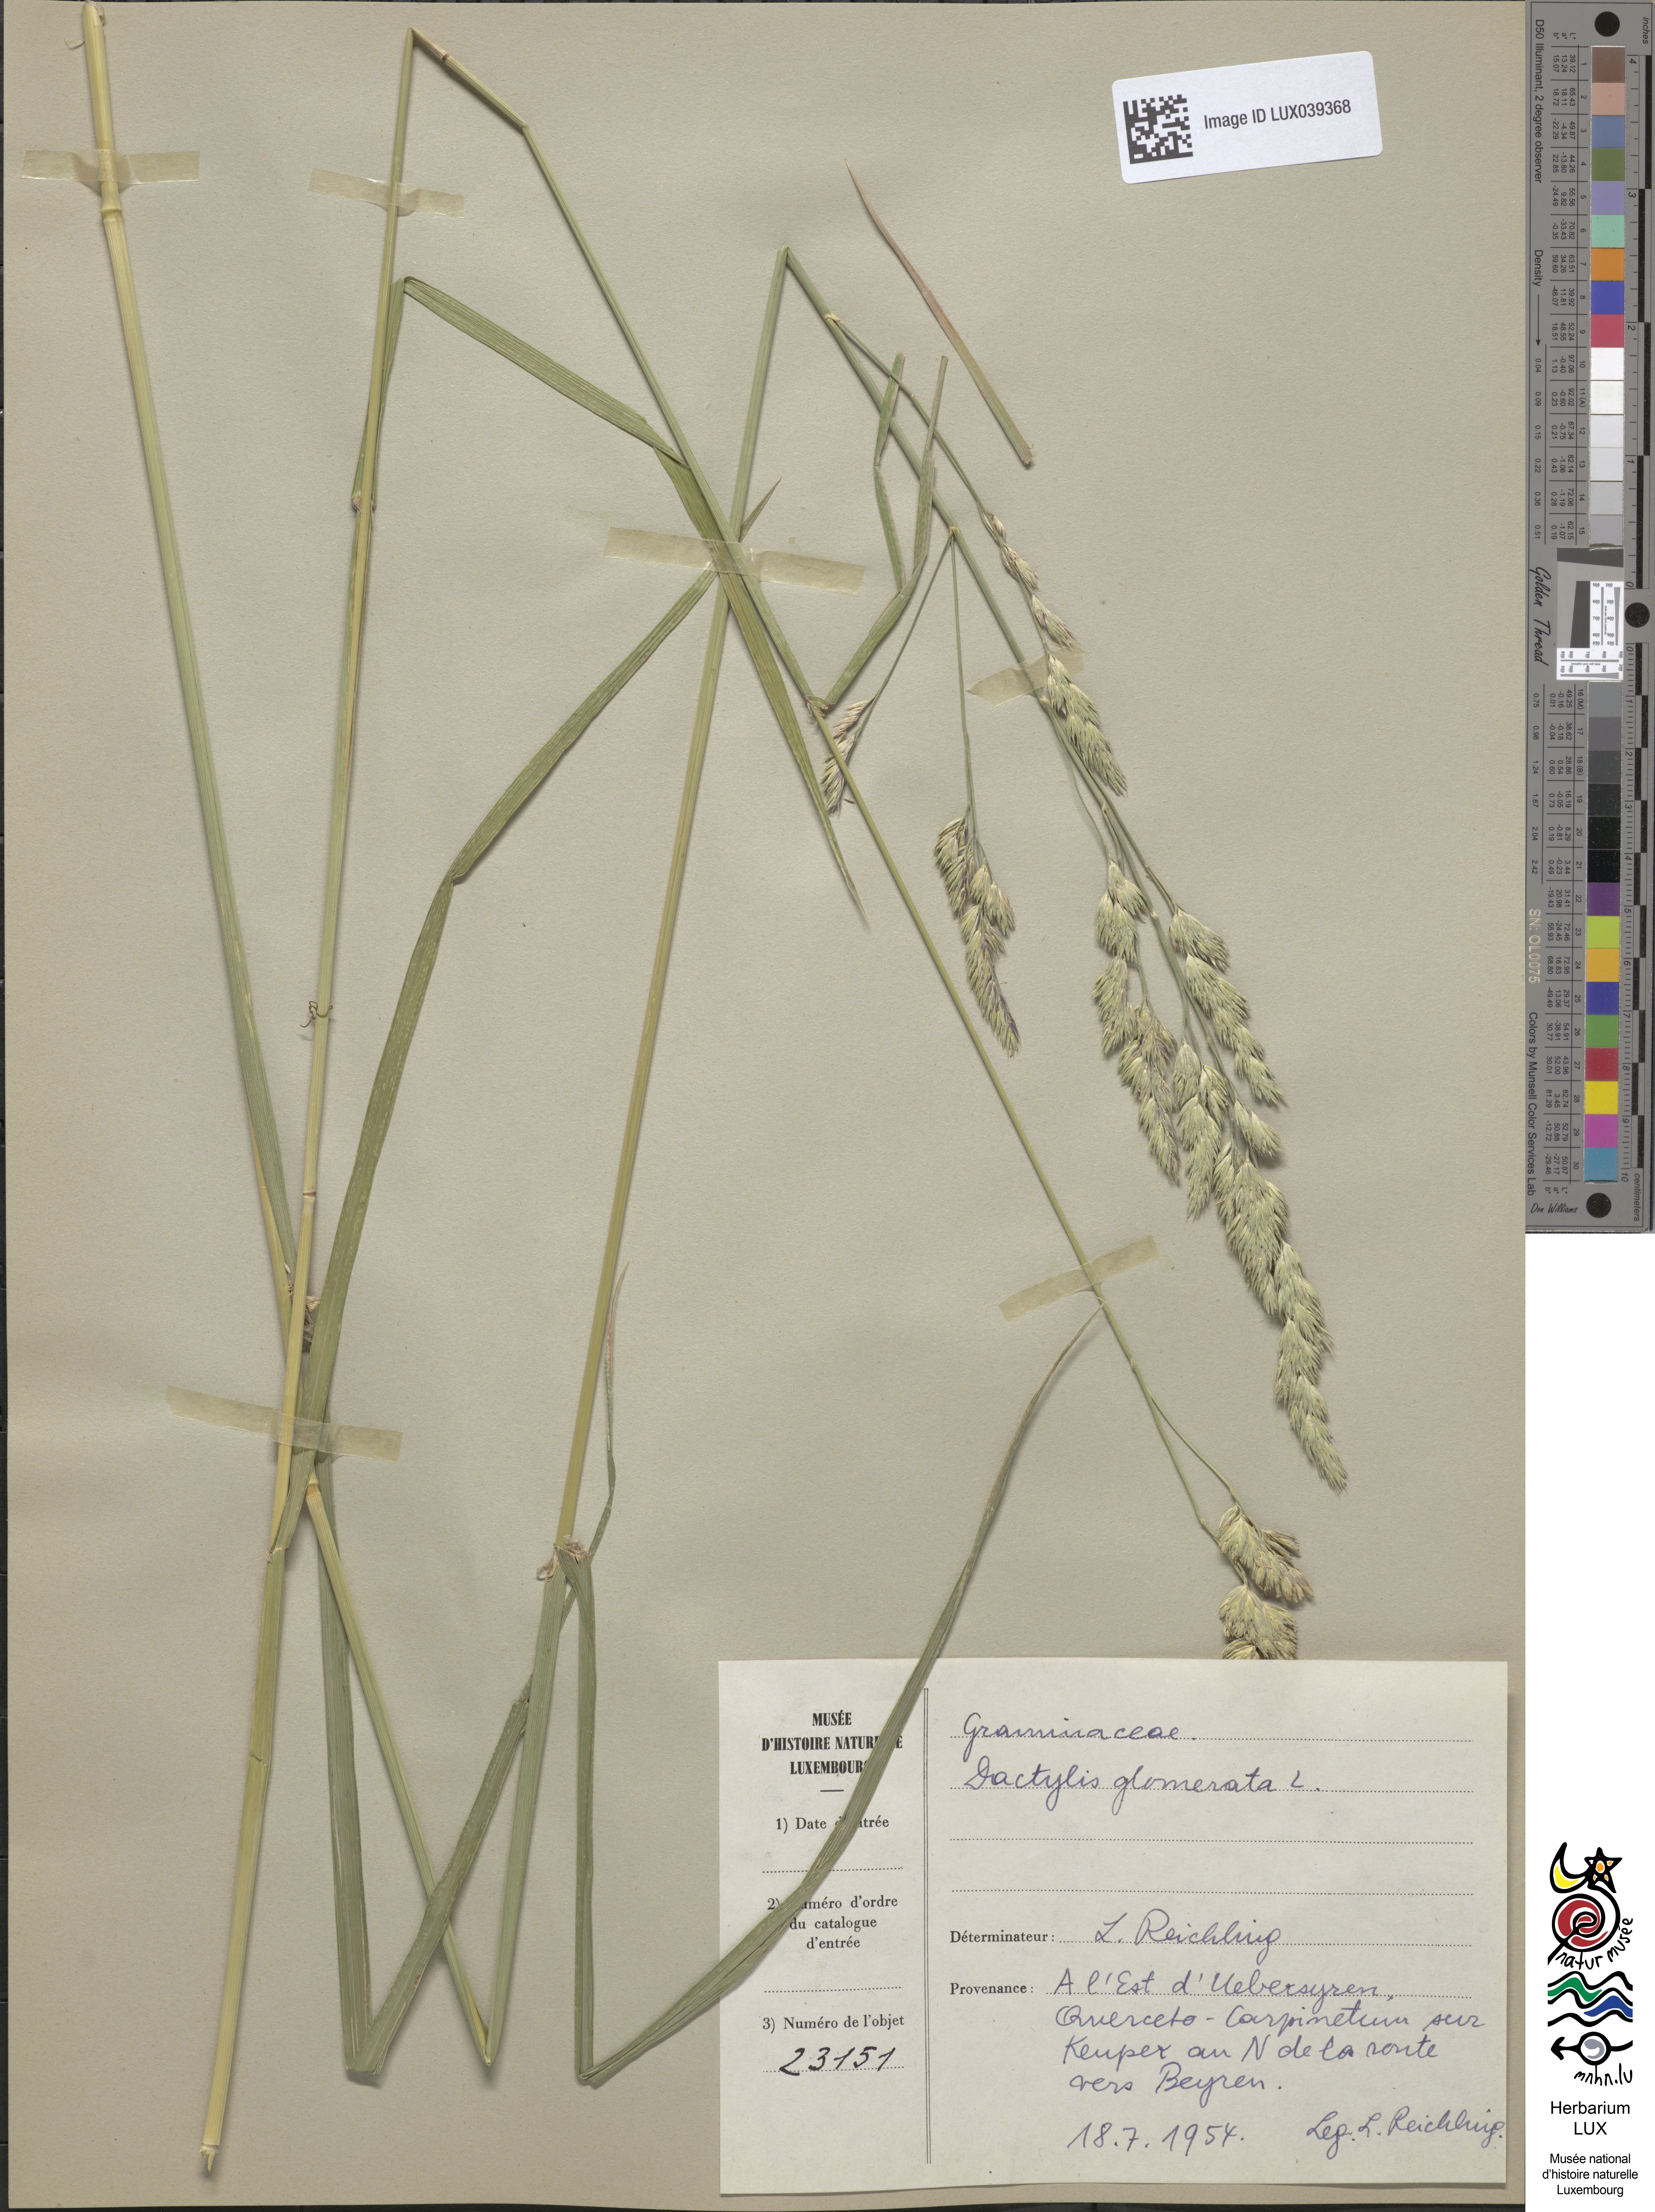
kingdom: Plantae
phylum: Tracheophyta
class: Liliopsida
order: Poales
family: Poaceae
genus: Dactylis
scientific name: Dactylis glomerata
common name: Orchardgrass
